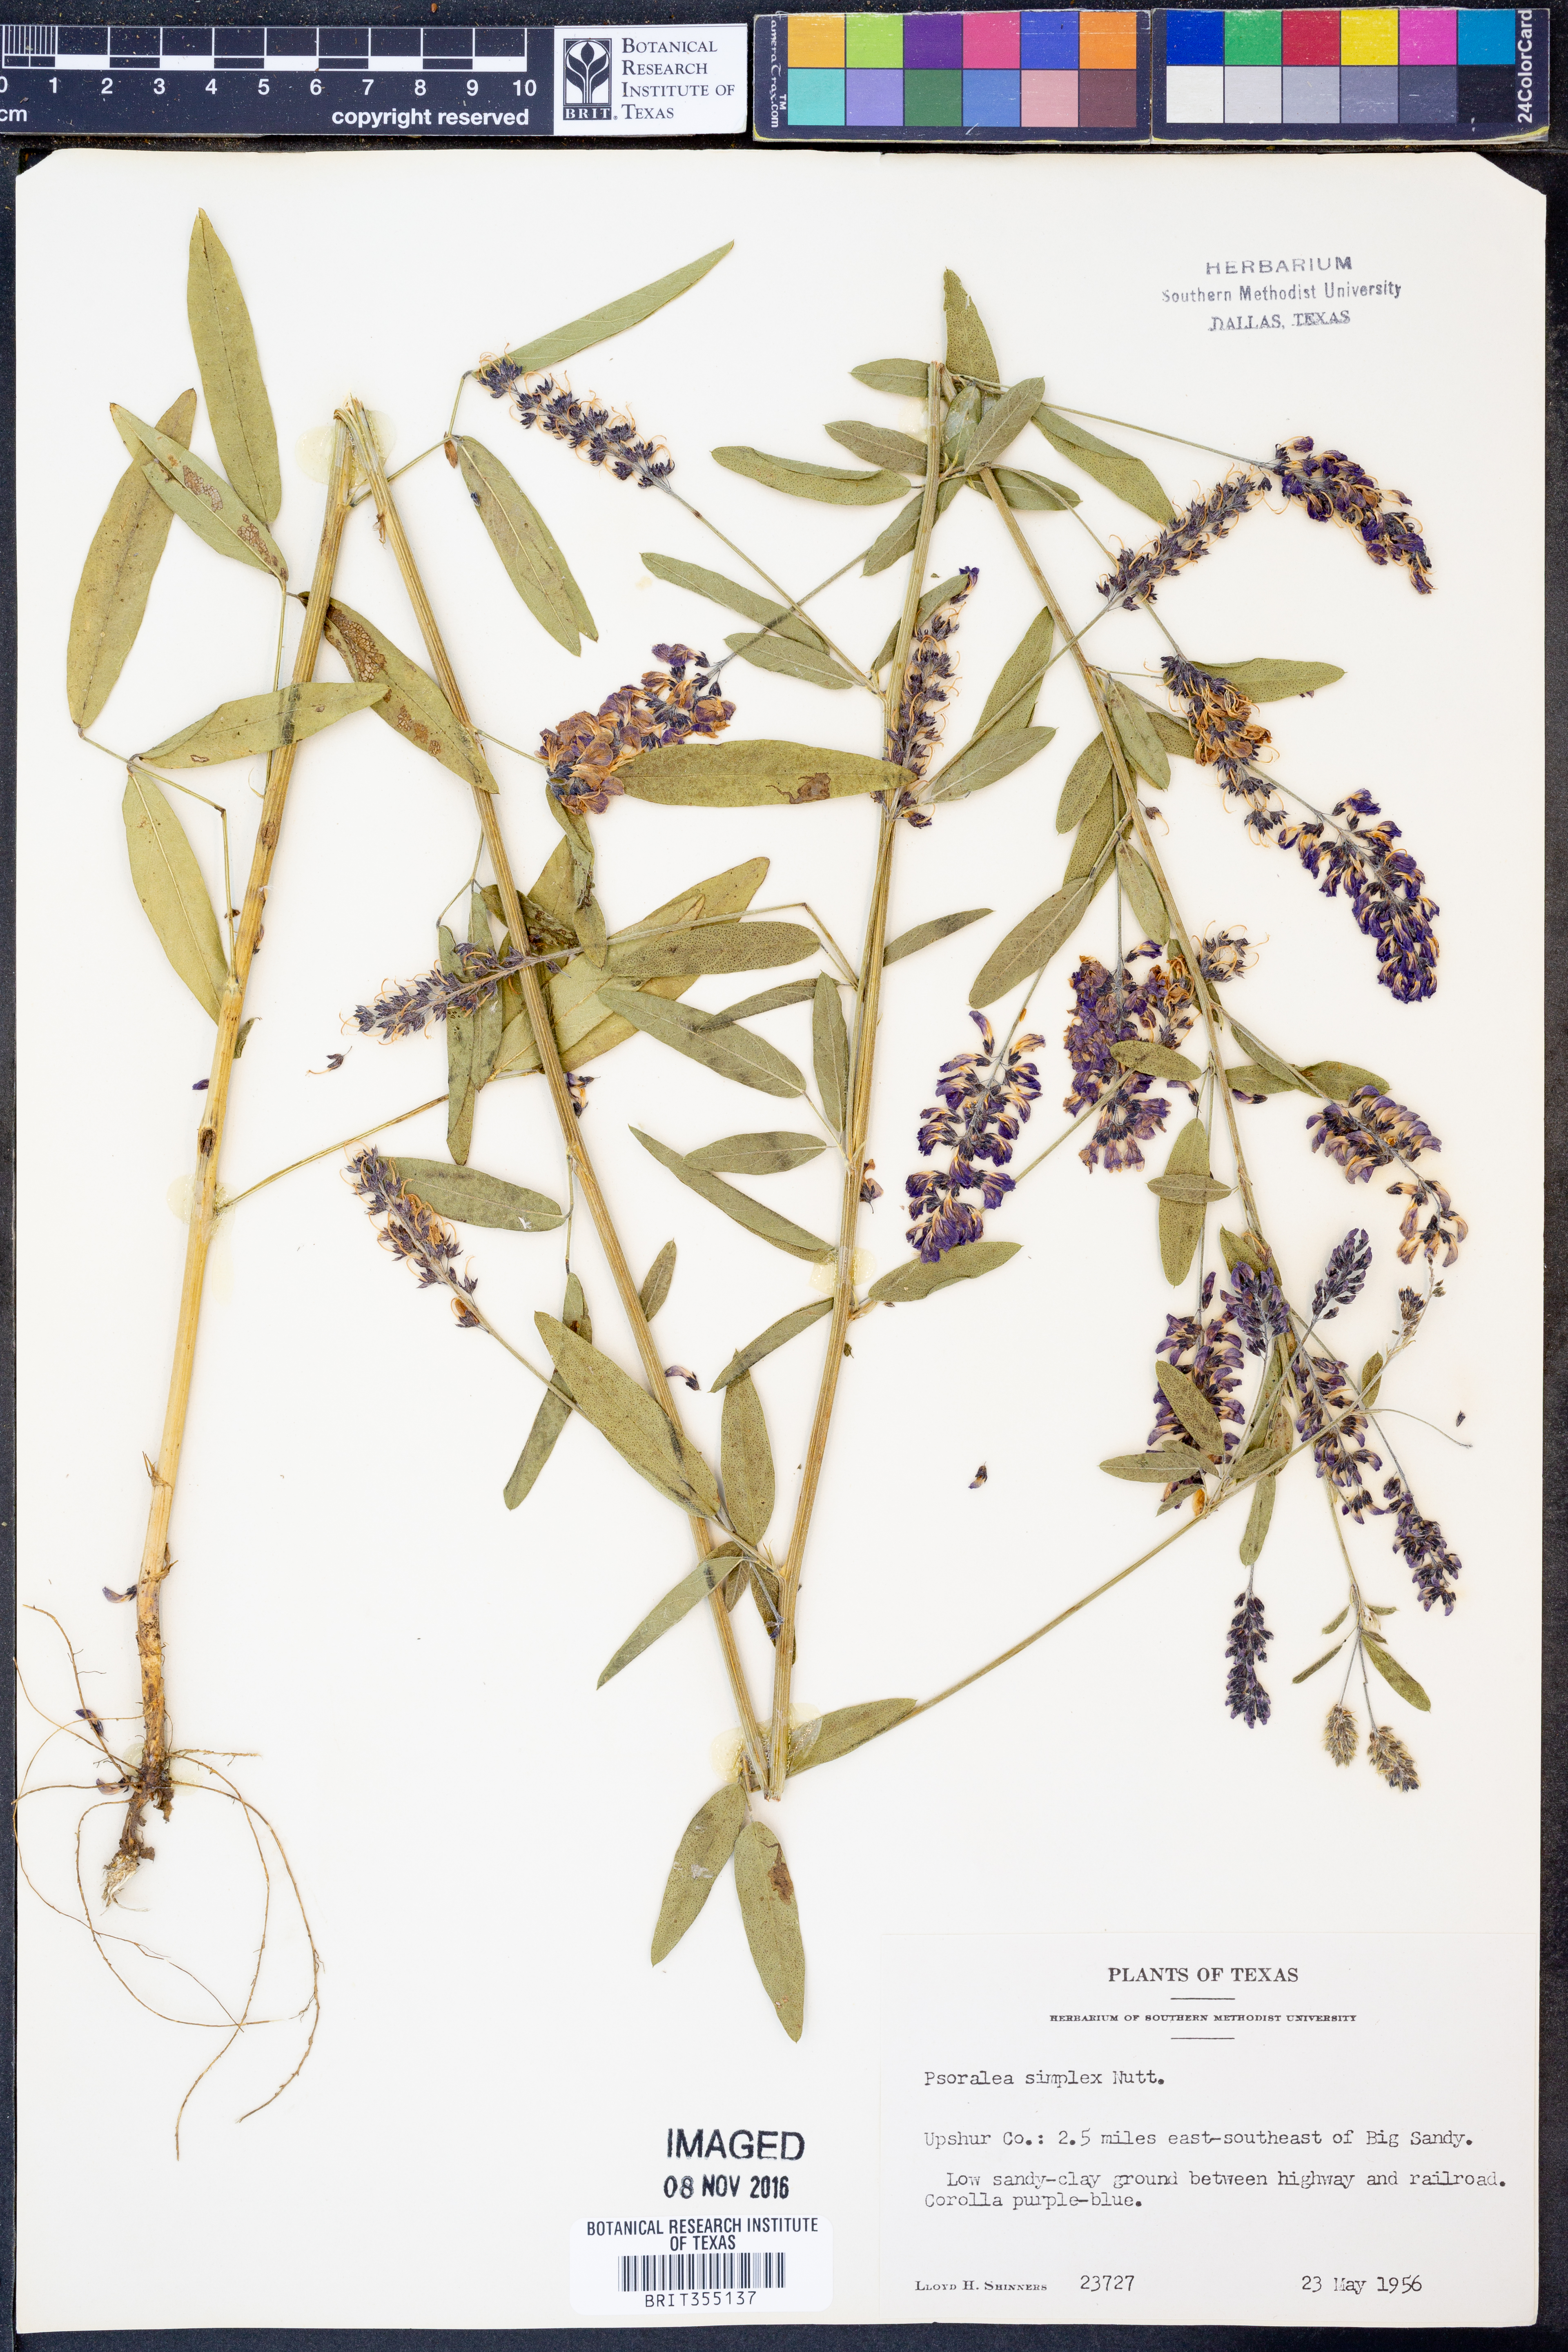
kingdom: Plantae
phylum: Tracheophyta
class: Magnoliopsida
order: Fabales
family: Fabaceae
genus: Orbexilum
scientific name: Orbexilum simplex
